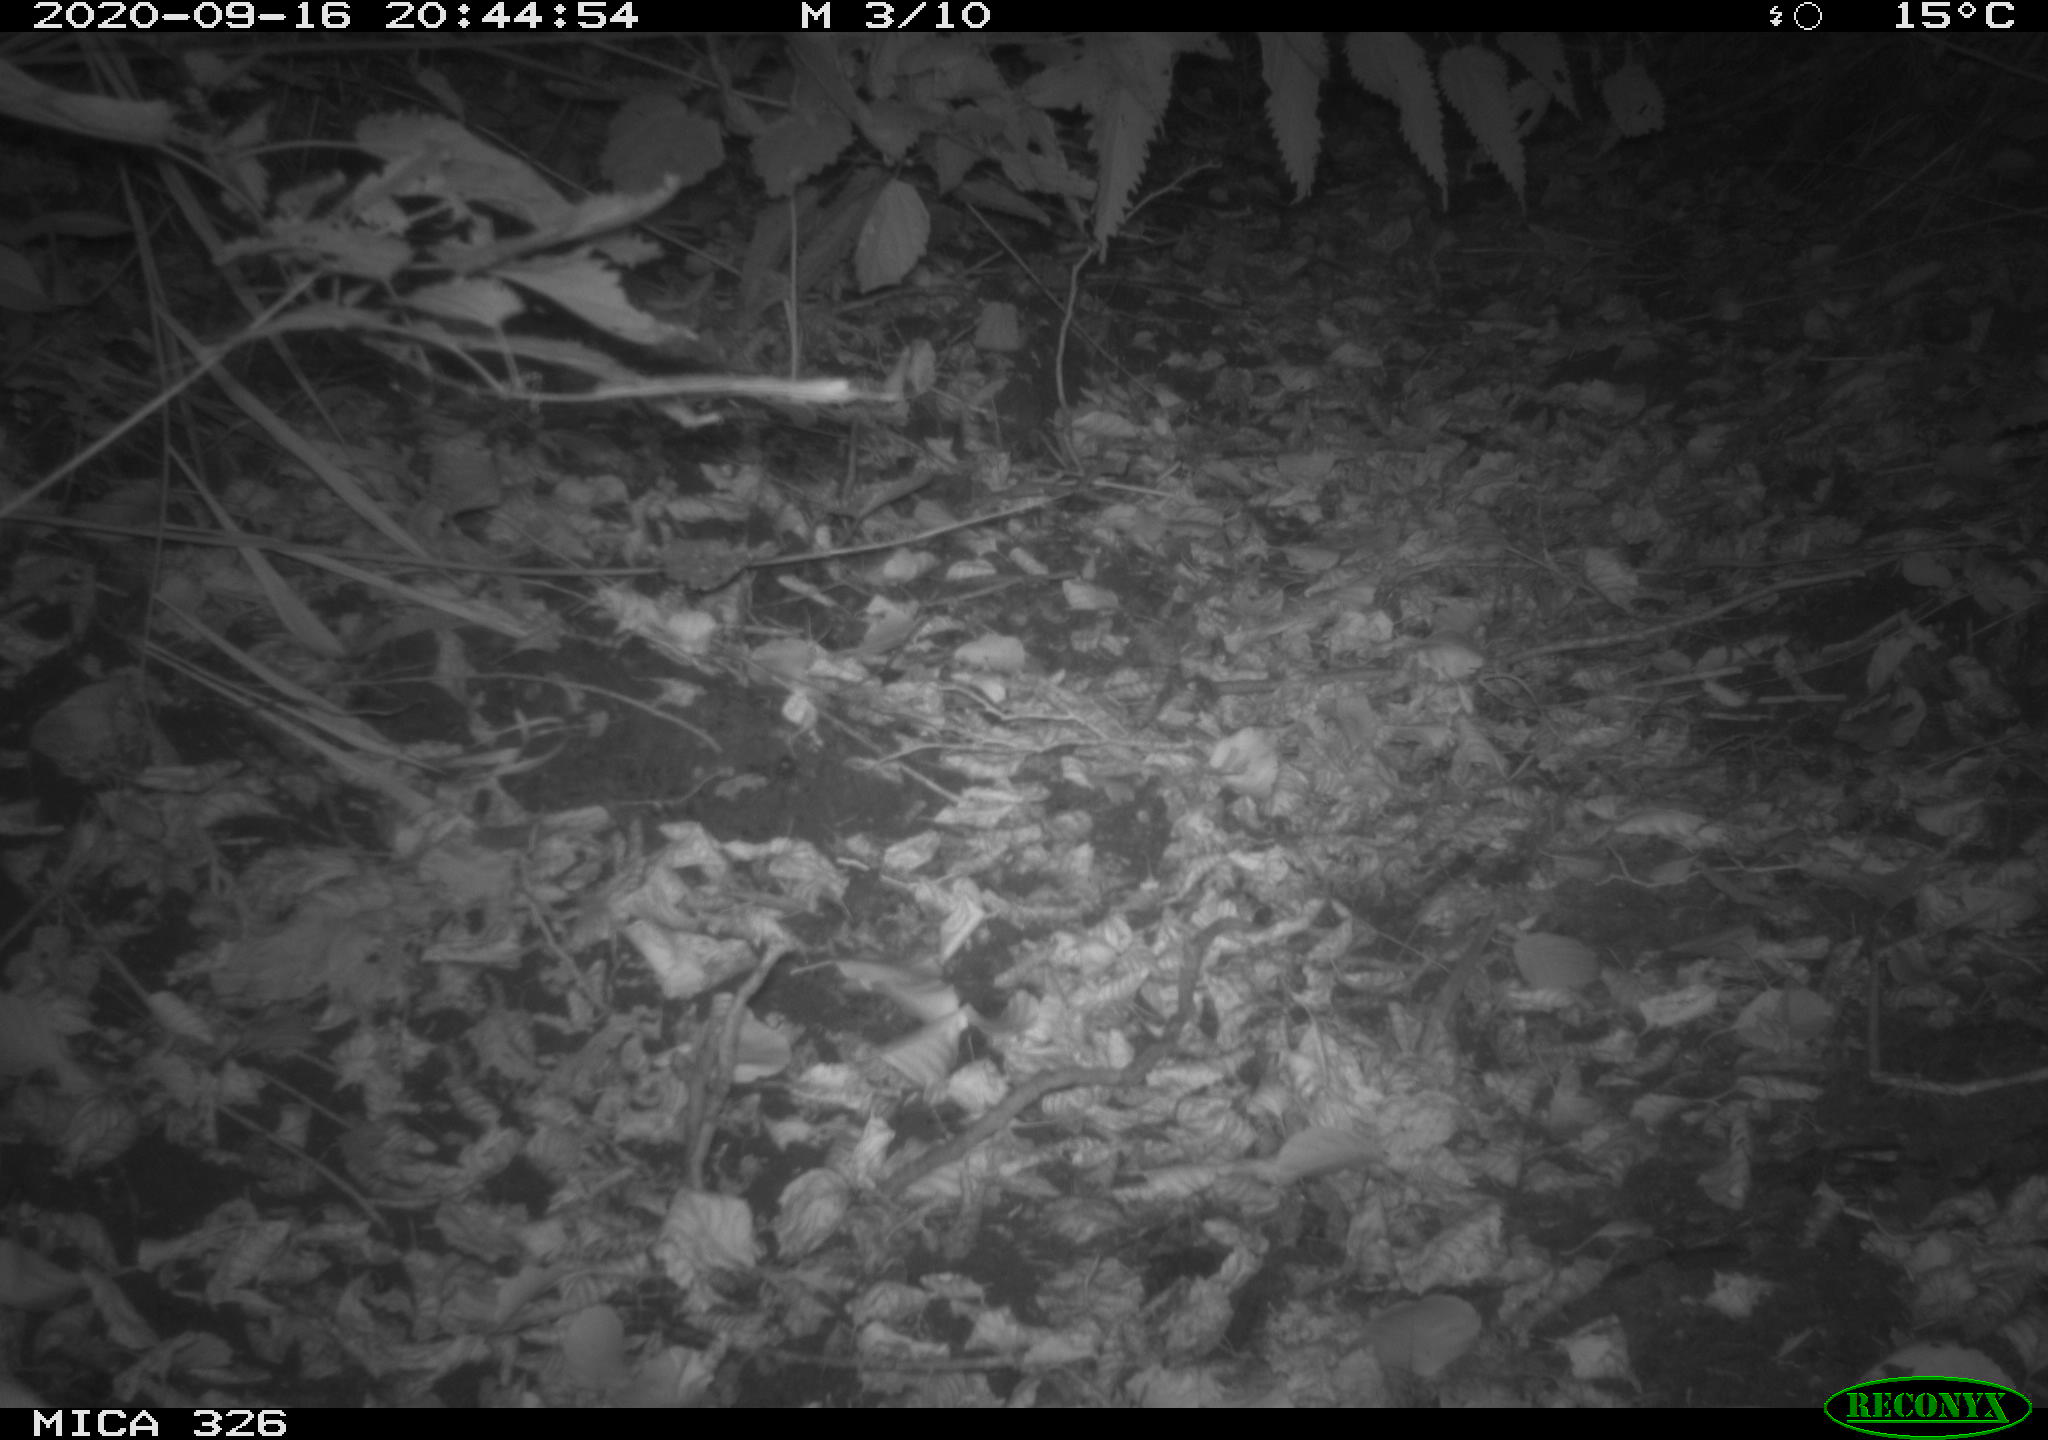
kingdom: Animalia
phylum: Chordata
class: Mammalia
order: Carnivora
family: Mustelidae
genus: Lutra
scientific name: Lutra lutra
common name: European otter
